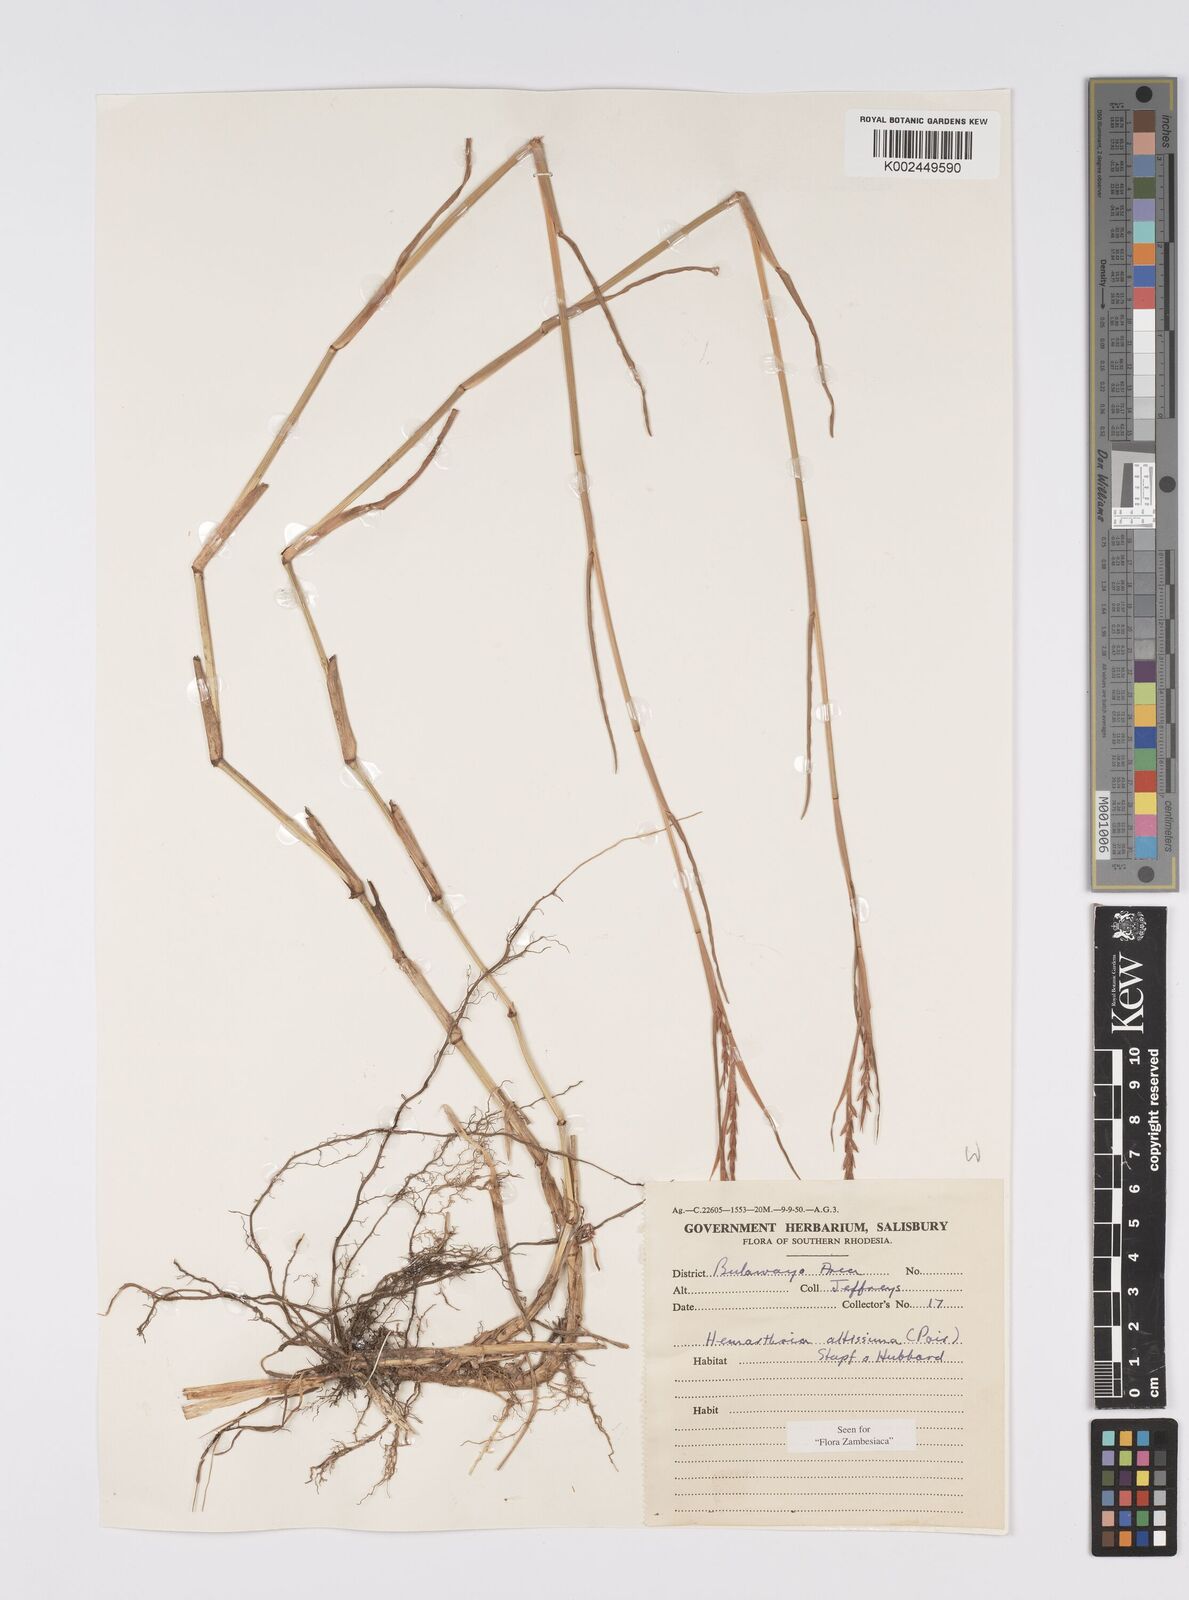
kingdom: Plantae
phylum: Tracheophyta
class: Liliopsida
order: Poales
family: Poaceae
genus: Hemarthria
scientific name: Hemarthria altissima
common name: African jointgrass
